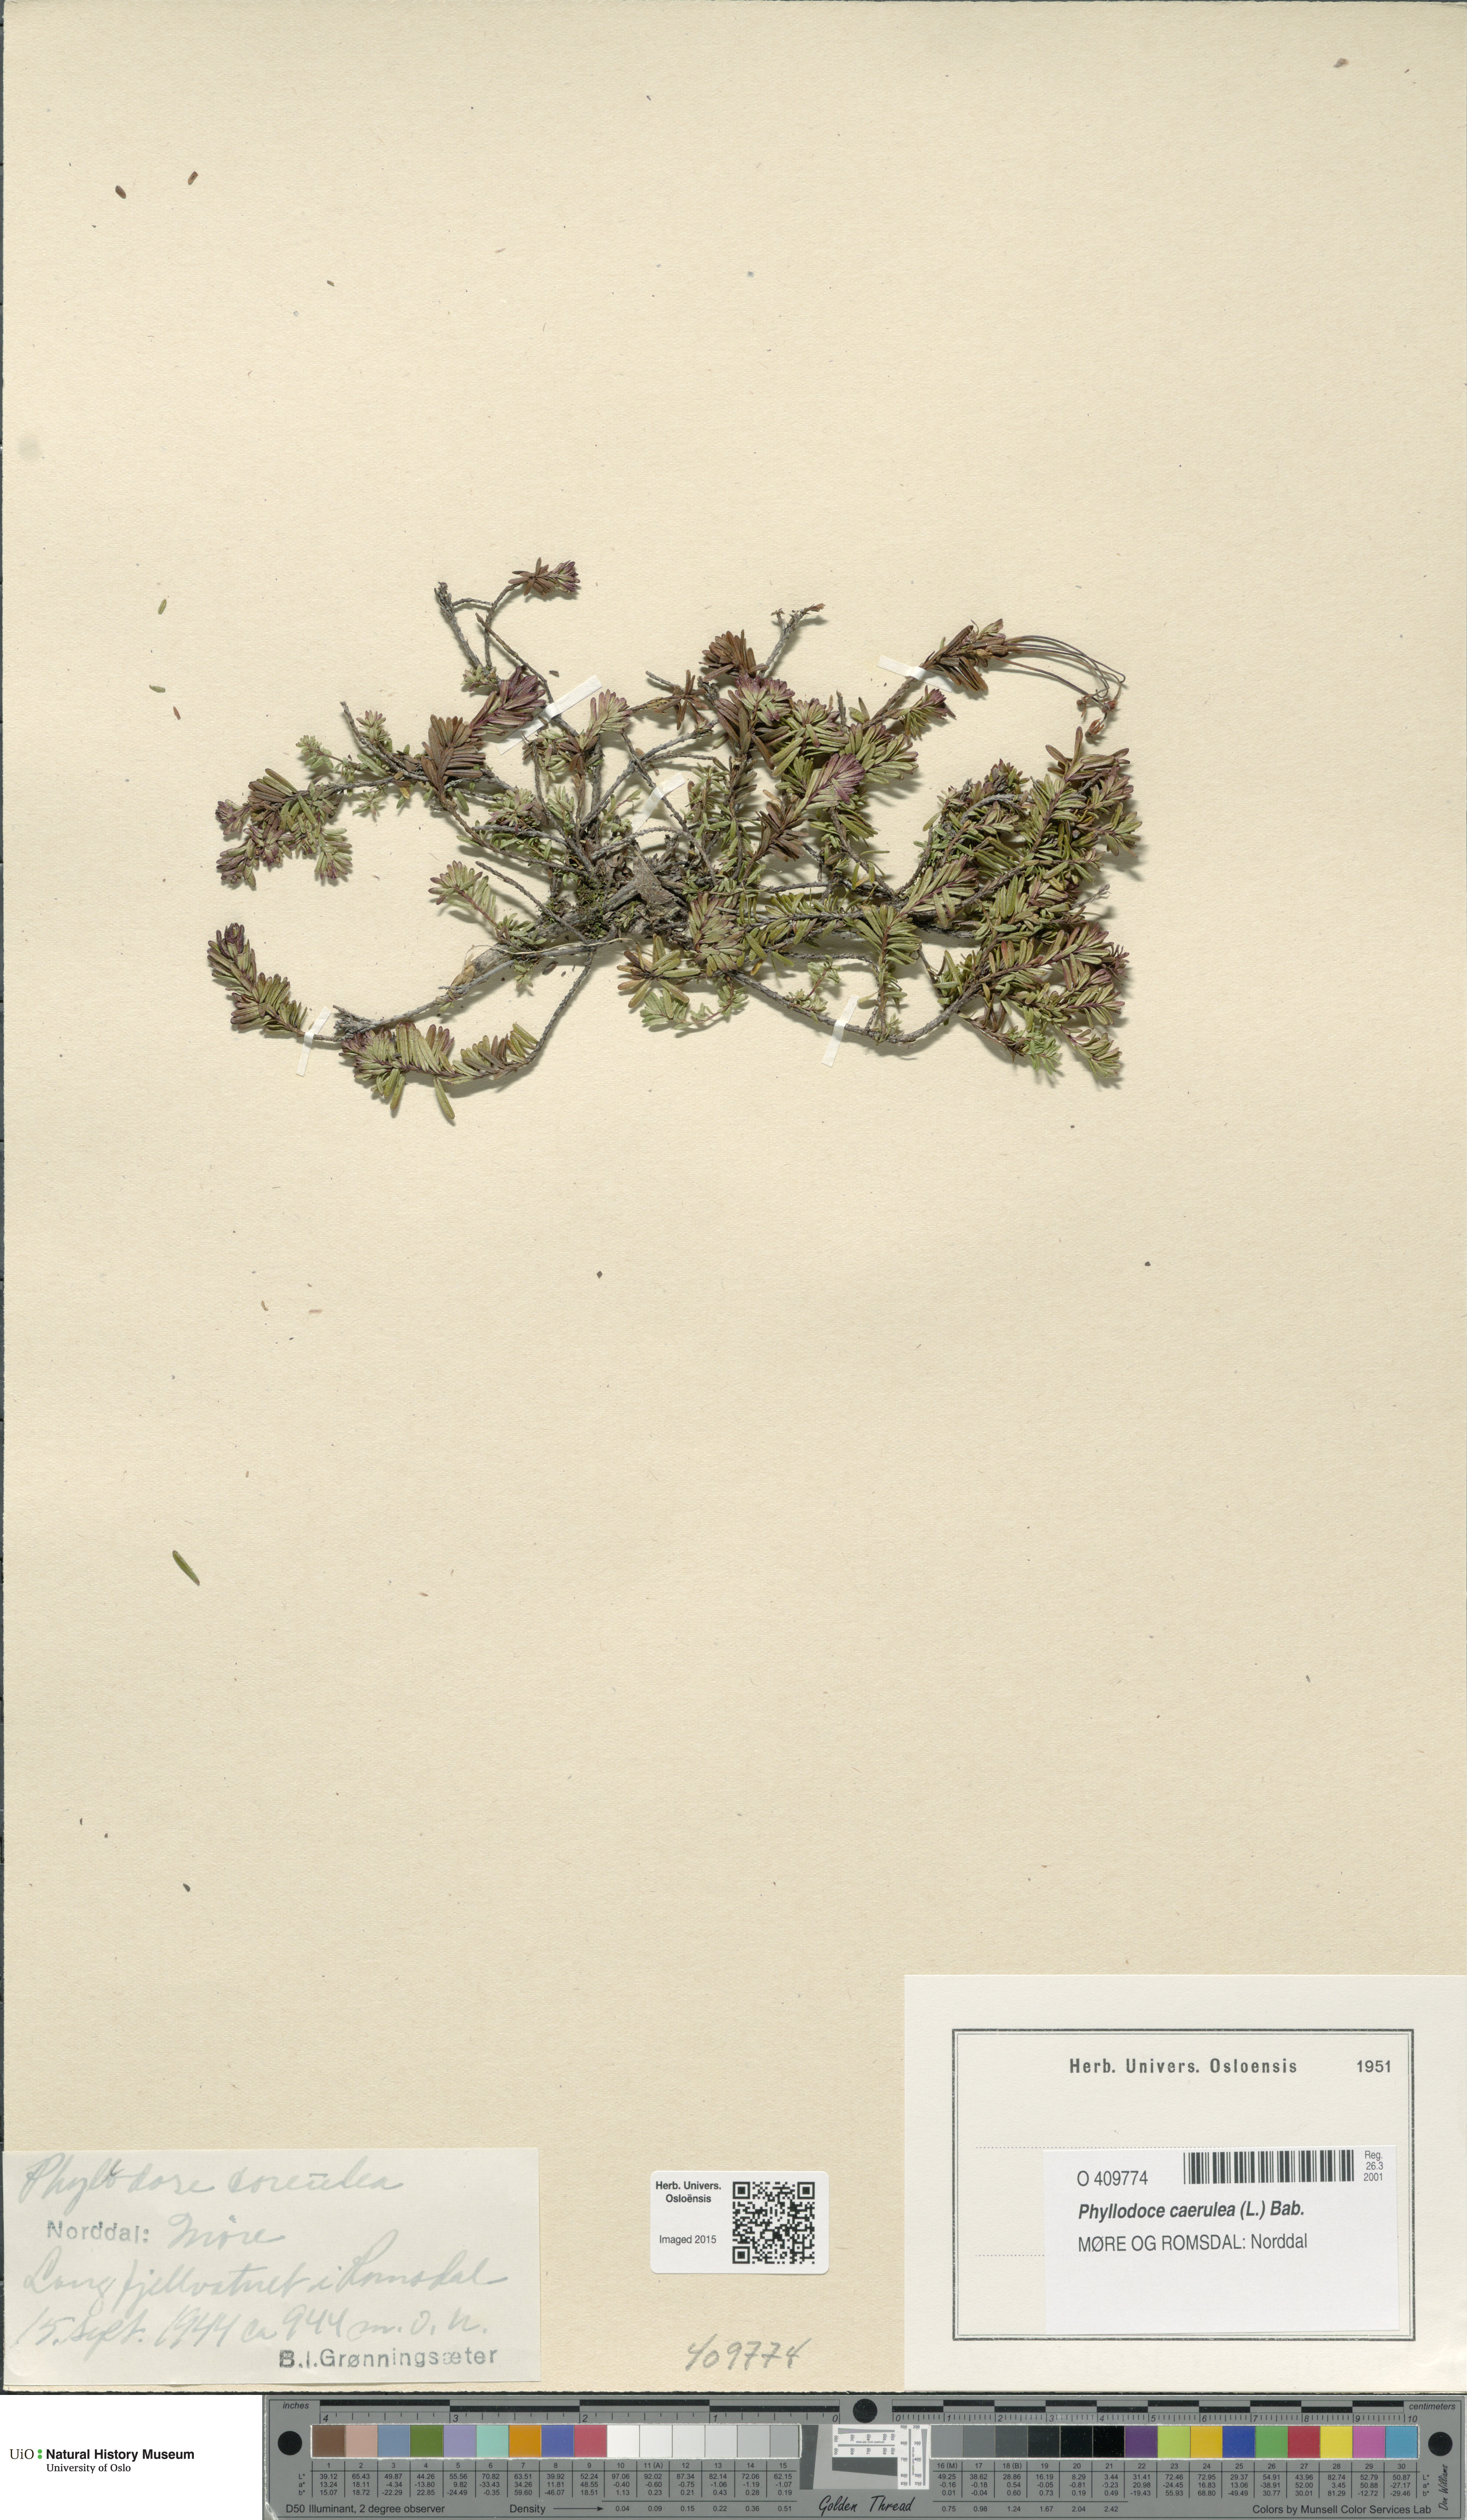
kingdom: Plantae
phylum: Tracheophyta
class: Magnoliopsida
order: Ericales
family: Ericaceae
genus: Phyllodoce
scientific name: Phyllodoce caerulea
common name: Blue heath
